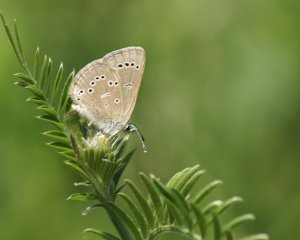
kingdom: Animalia
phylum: Arthropoda
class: Insecta
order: Lepidoptera
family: Lycaenidae
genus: Glaucopsyche
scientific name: Glaucopsyche lygdamus
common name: Silvery Blue
